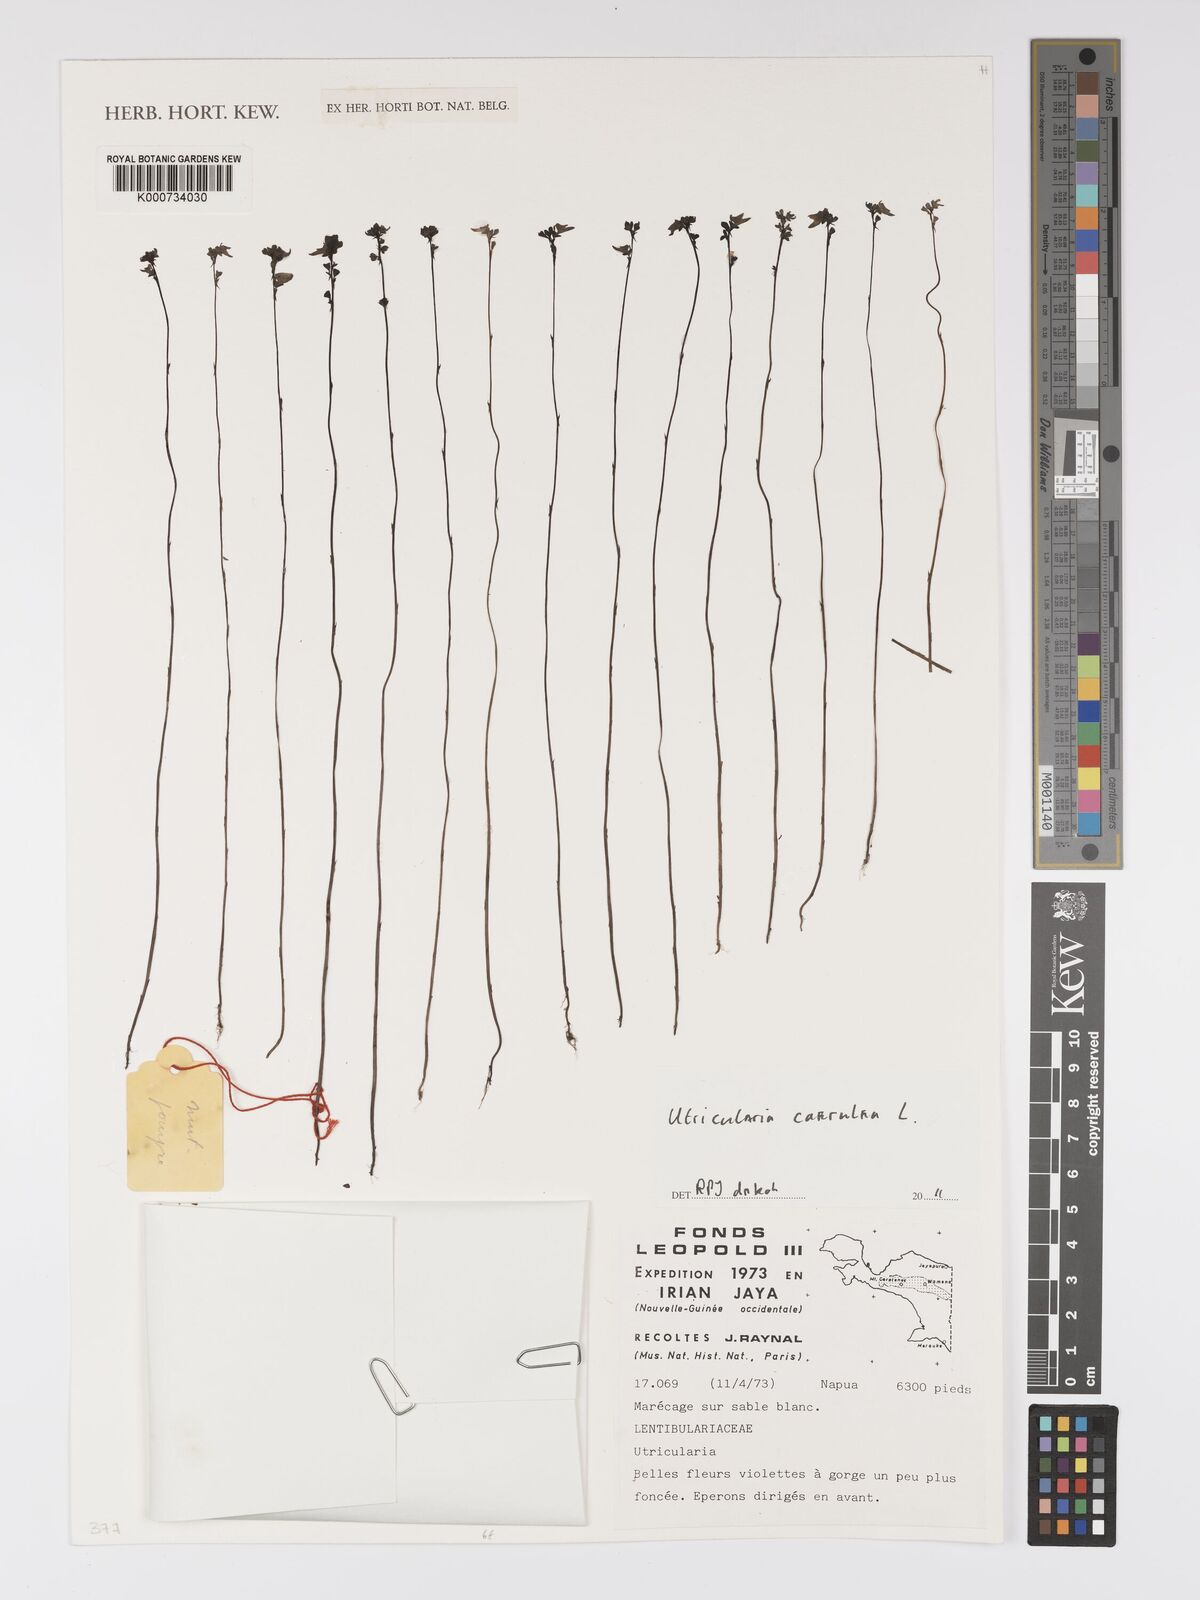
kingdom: Plantae
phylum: Tracheophyta
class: Magnoliopsida
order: Lamiales
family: Lentibulariaceae
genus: Utricularia
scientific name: Utricularia caerulea
